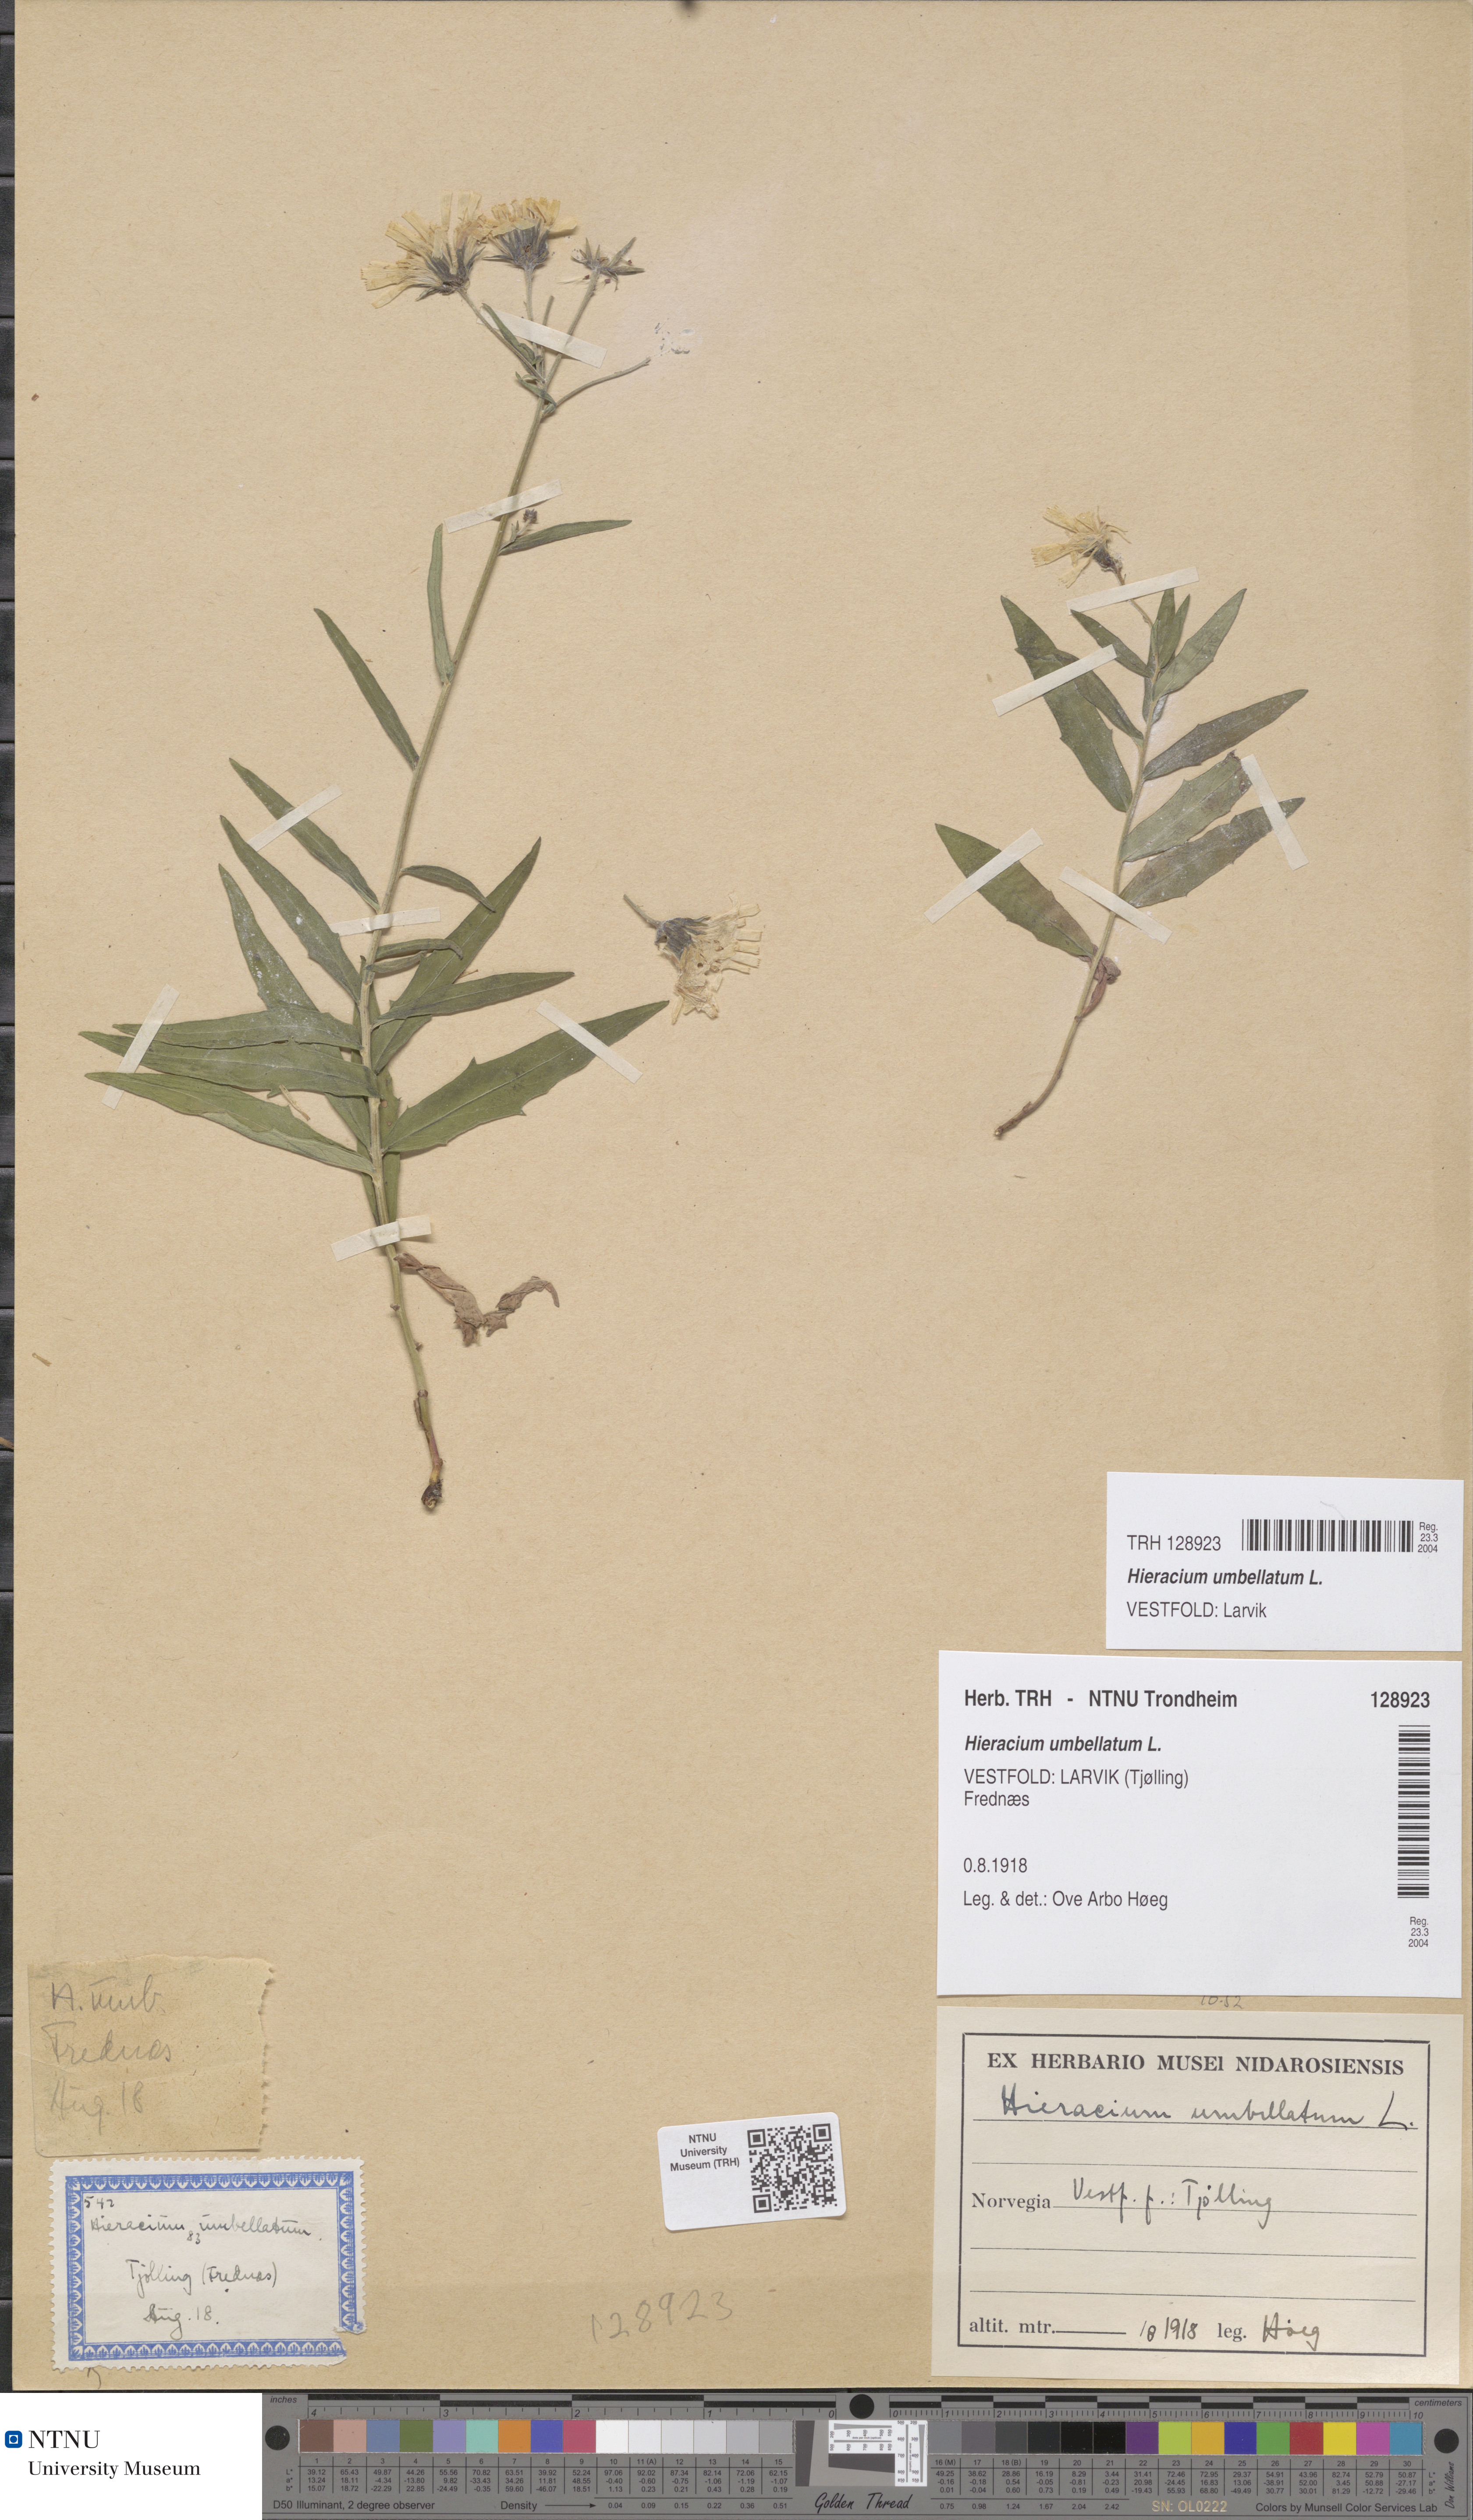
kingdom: Plantae
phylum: Tracheophyta
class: Magnoliopsida
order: Asterales
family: Asteraceae
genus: Hieracium
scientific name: Hieracium umbellatum
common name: Northern hawkweed
